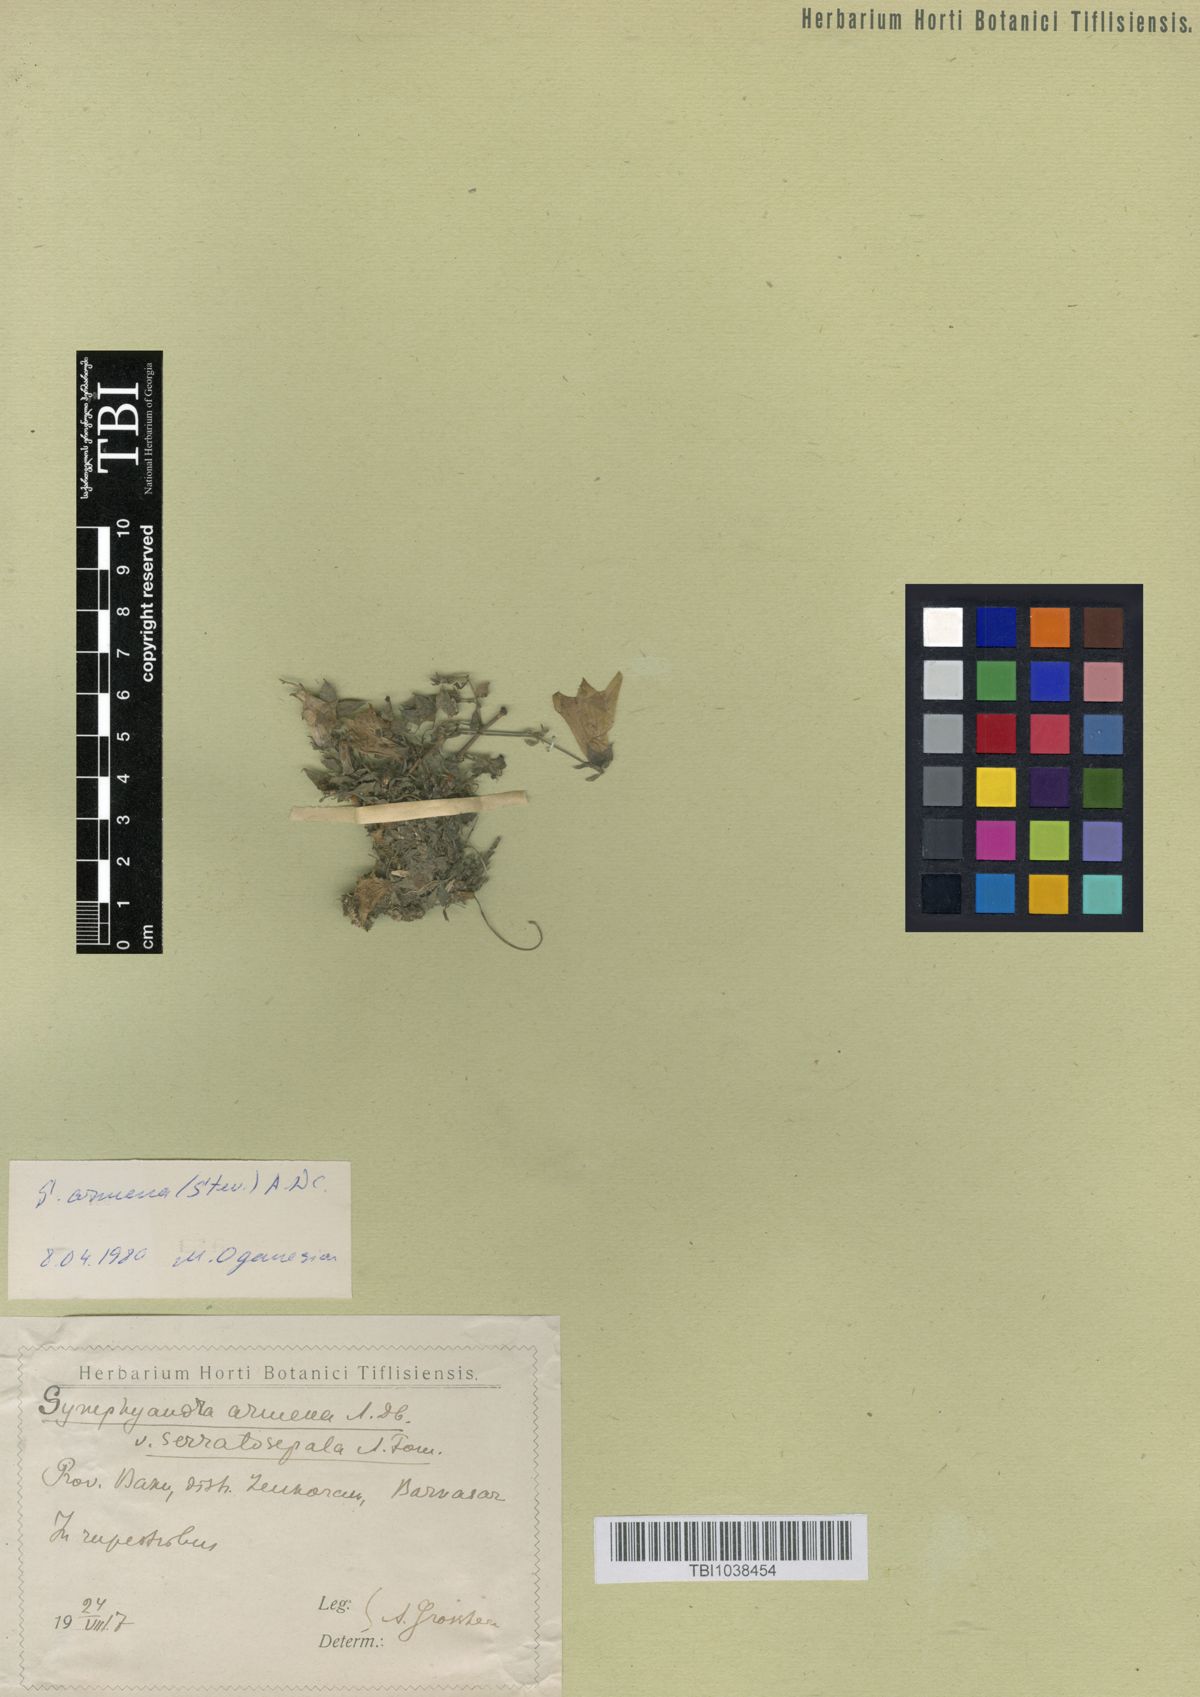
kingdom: Plantae
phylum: Tracheophyta
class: Magnoliopsida
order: Asterales
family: Campanulaceae
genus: Campanula
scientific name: Campanula armena
